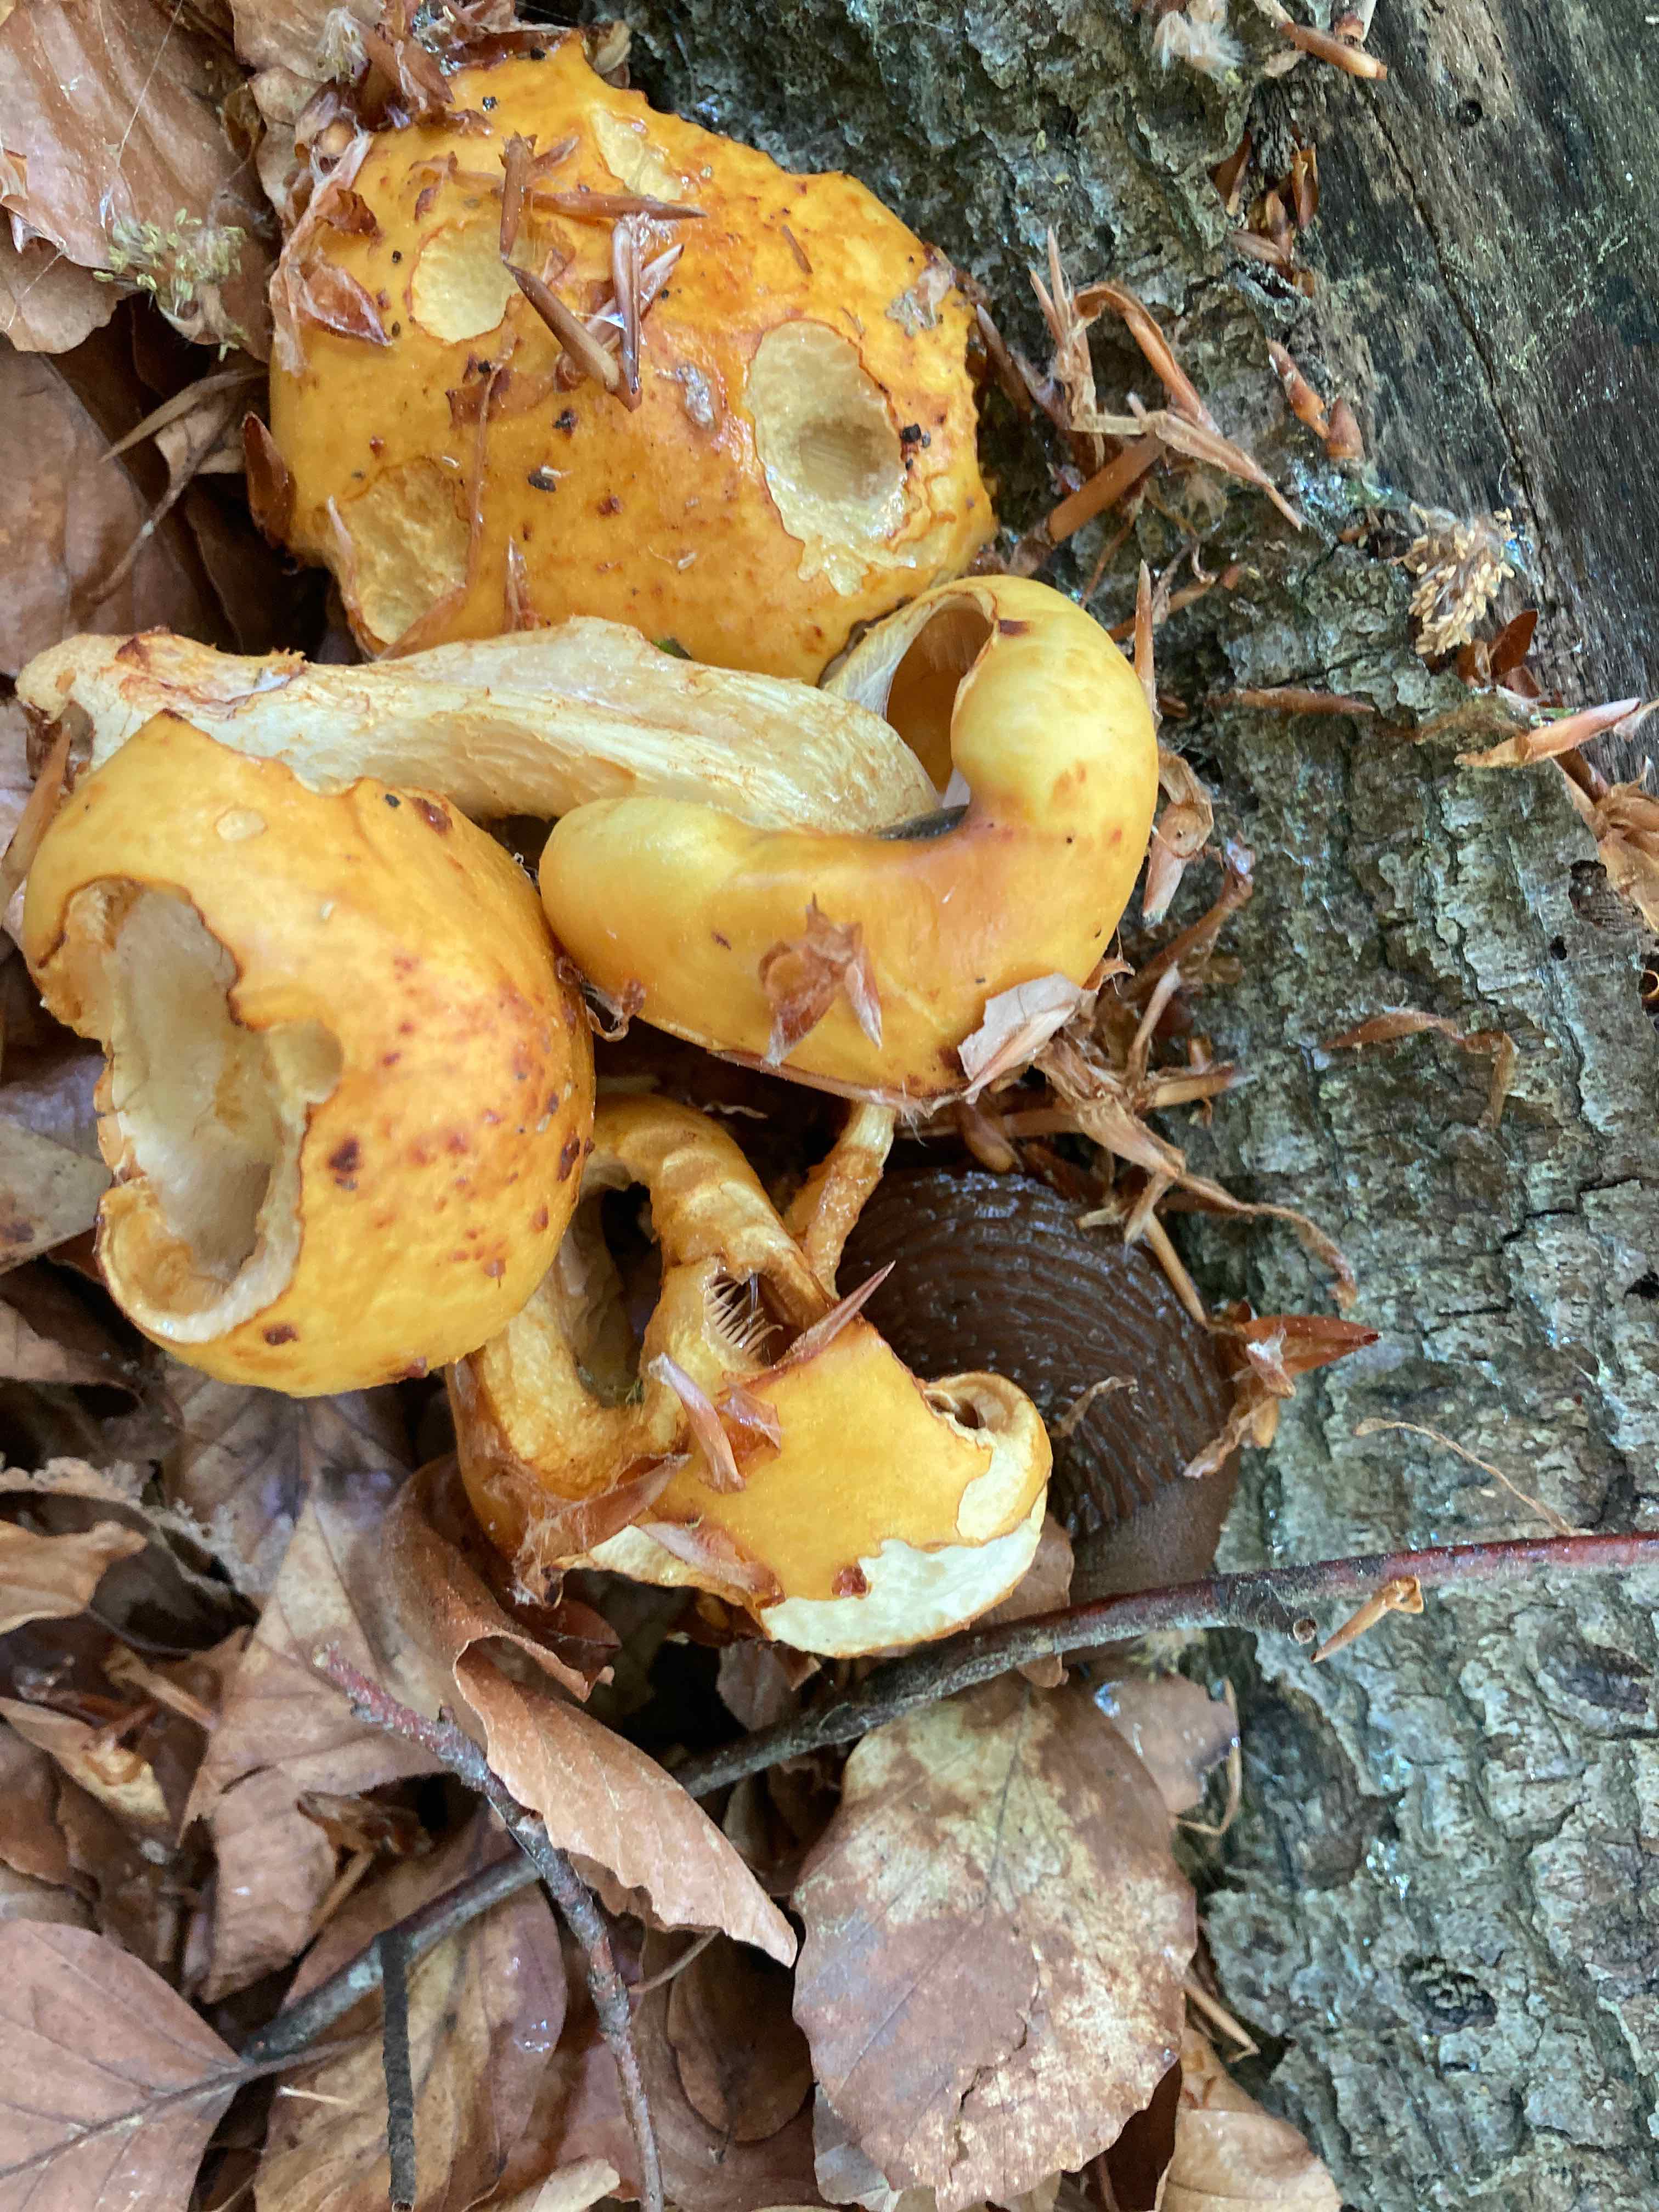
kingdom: Fungi
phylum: Basidiomycota
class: Agaricomycetes
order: Agaricales
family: Strophariaceae
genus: Pholiota
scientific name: Pholiota adiposa
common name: højtsiddende skælhat
